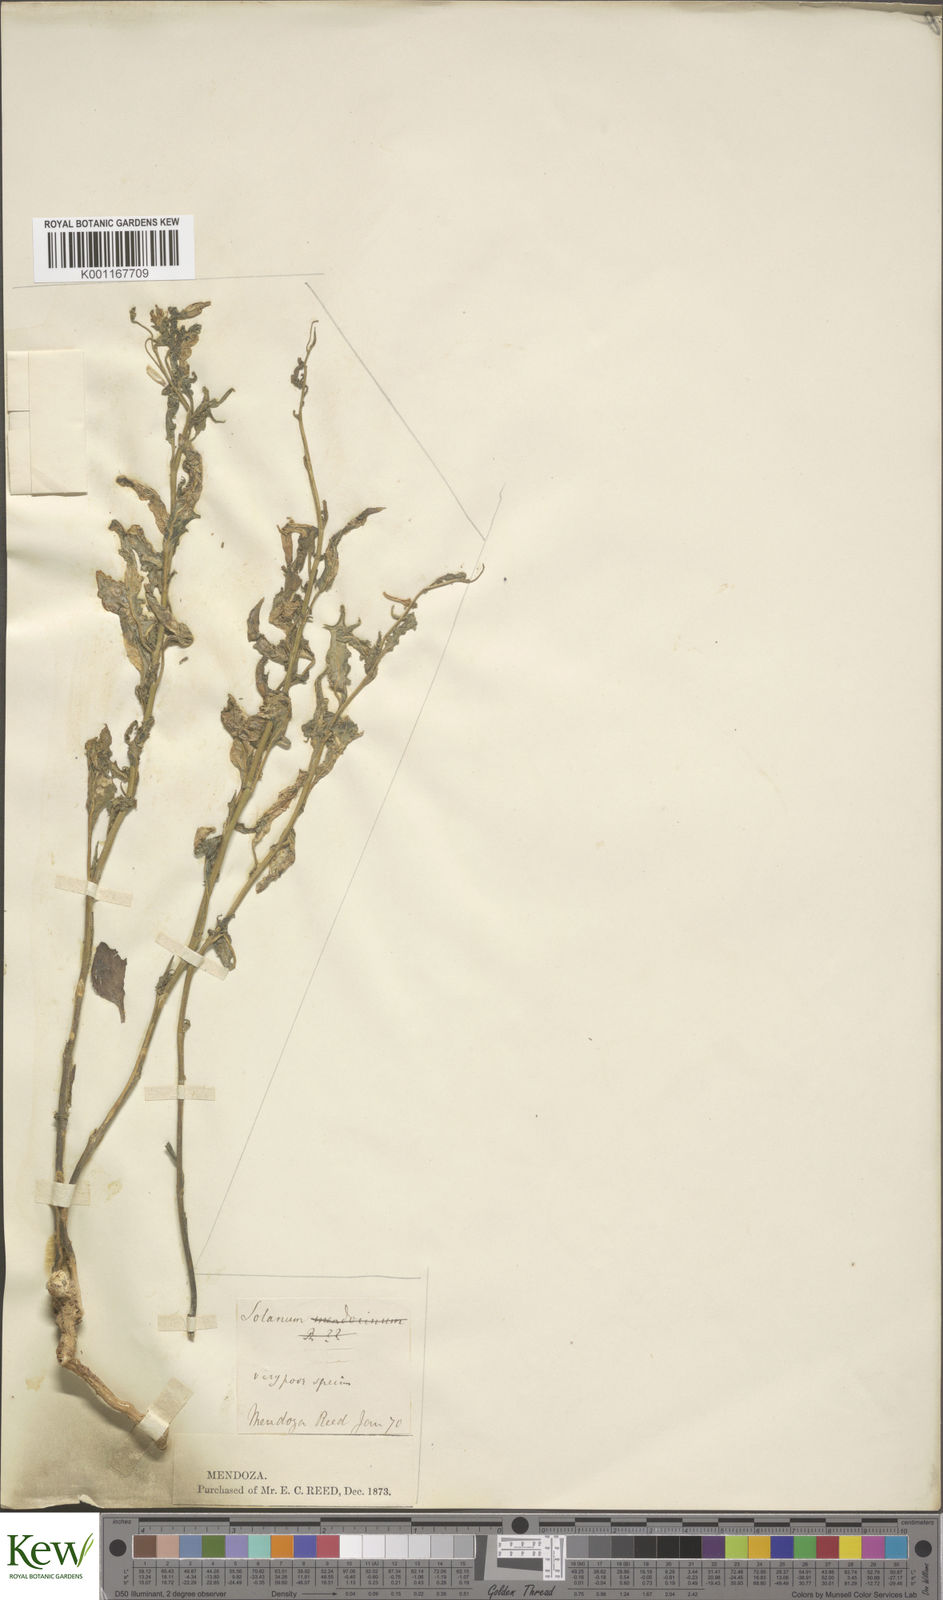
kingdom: Plantae
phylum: Tracheophyta
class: Magnoliopsida
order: Solanales
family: Solanaceae
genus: Solanum
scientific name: Solanum salicifolium
